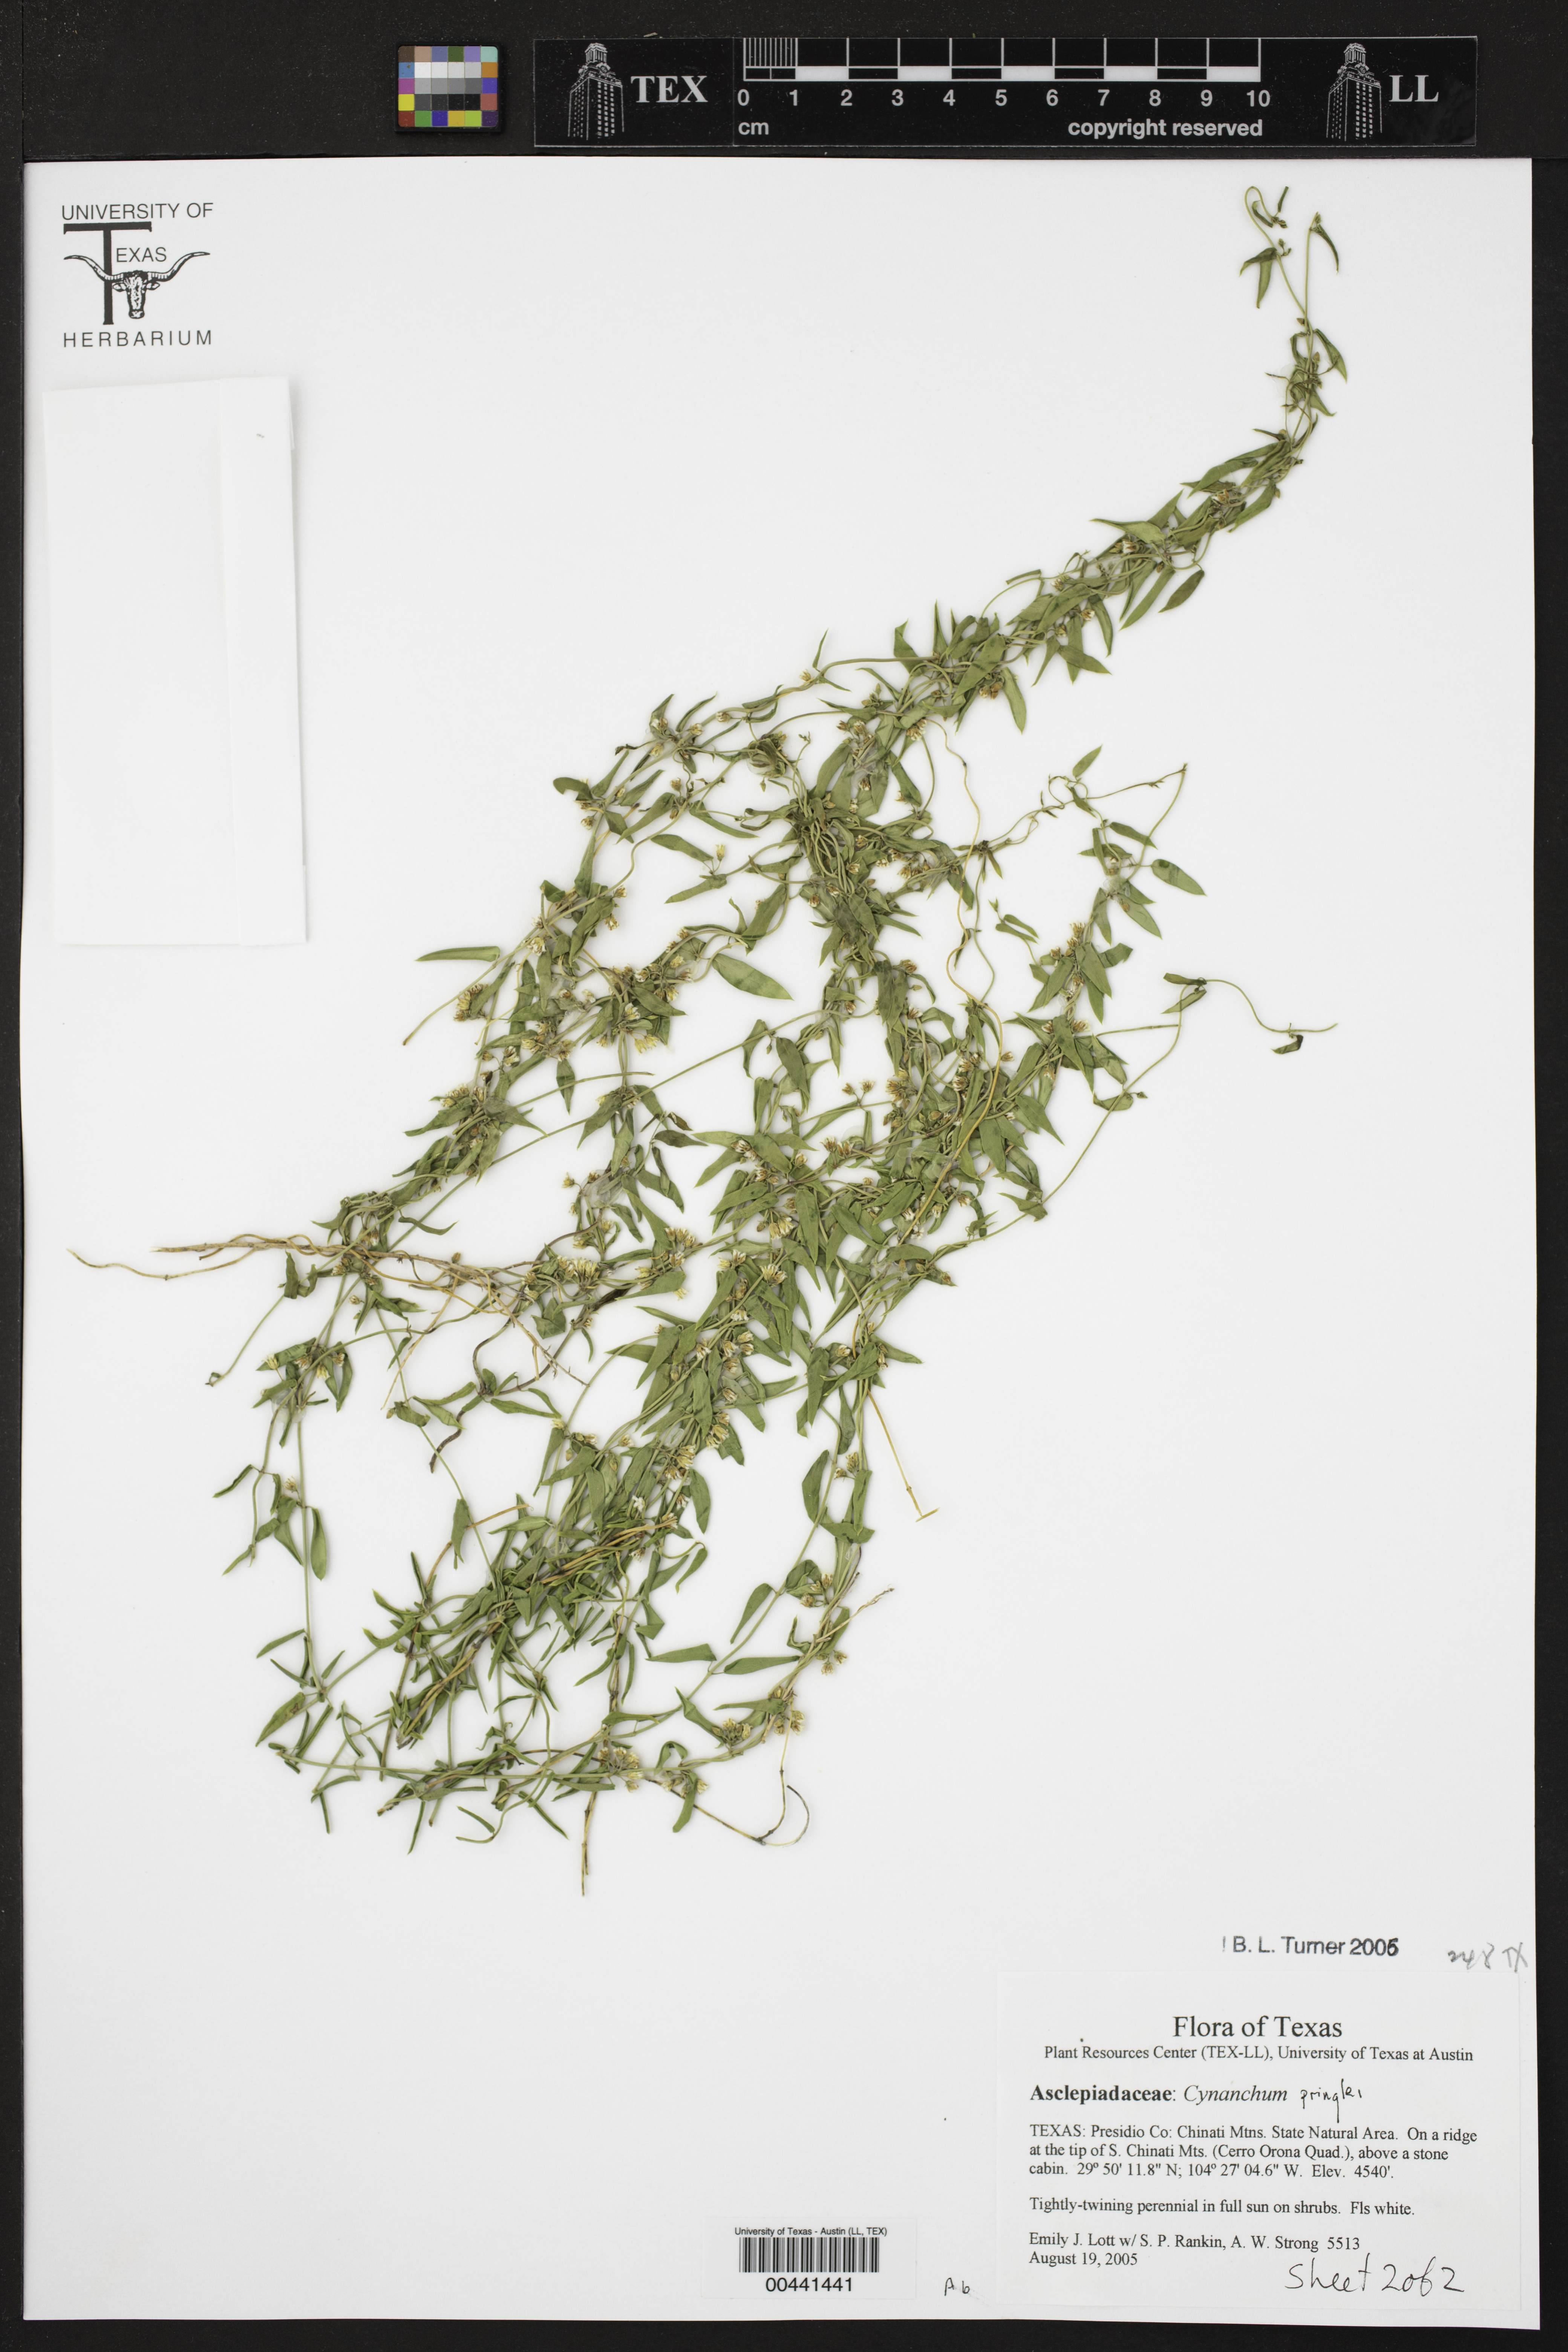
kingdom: Plantae
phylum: Tracheophyta
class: Magnoliopsida
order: Gentianales
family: Apocynaceae
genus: Metastelma
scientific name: Metastelma pringlei
